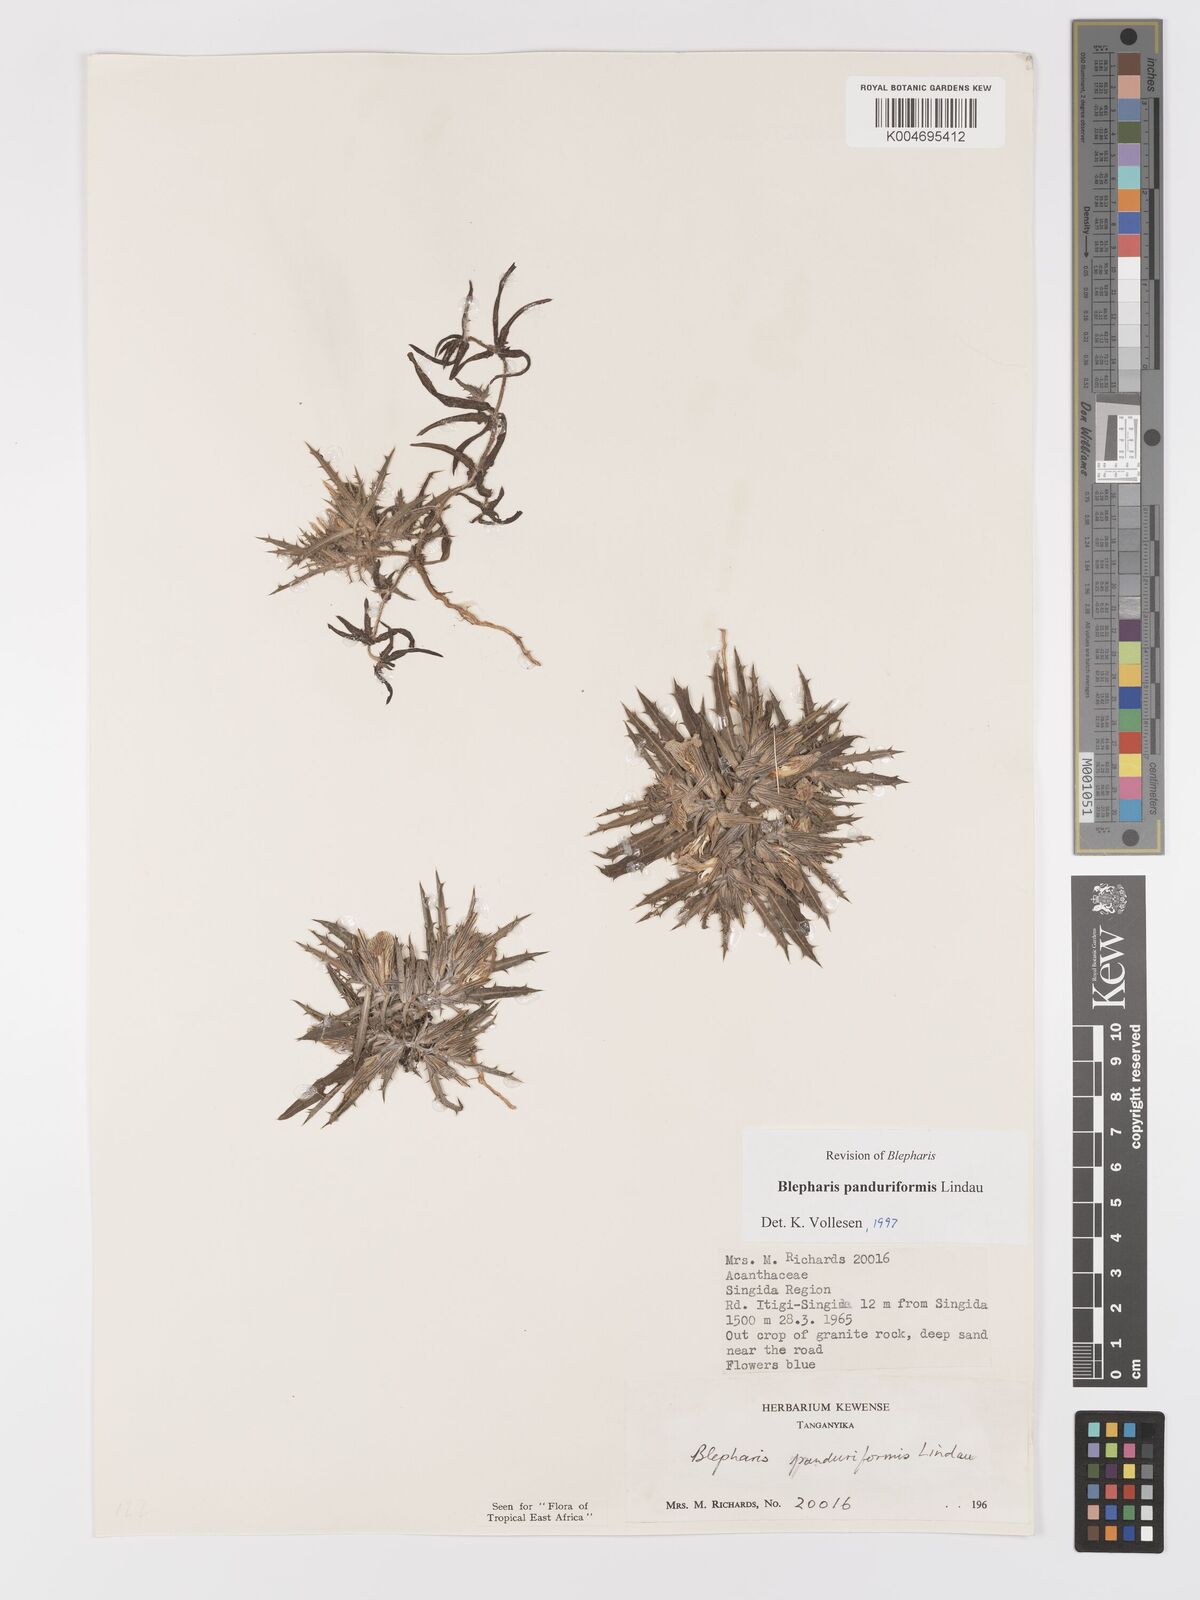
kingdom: Plantae
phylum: Tracheophyta
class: Magnoliopsida
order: Lamiales
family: Acanthaceae
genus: Blepharis
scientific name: Blepharis panduriformis
